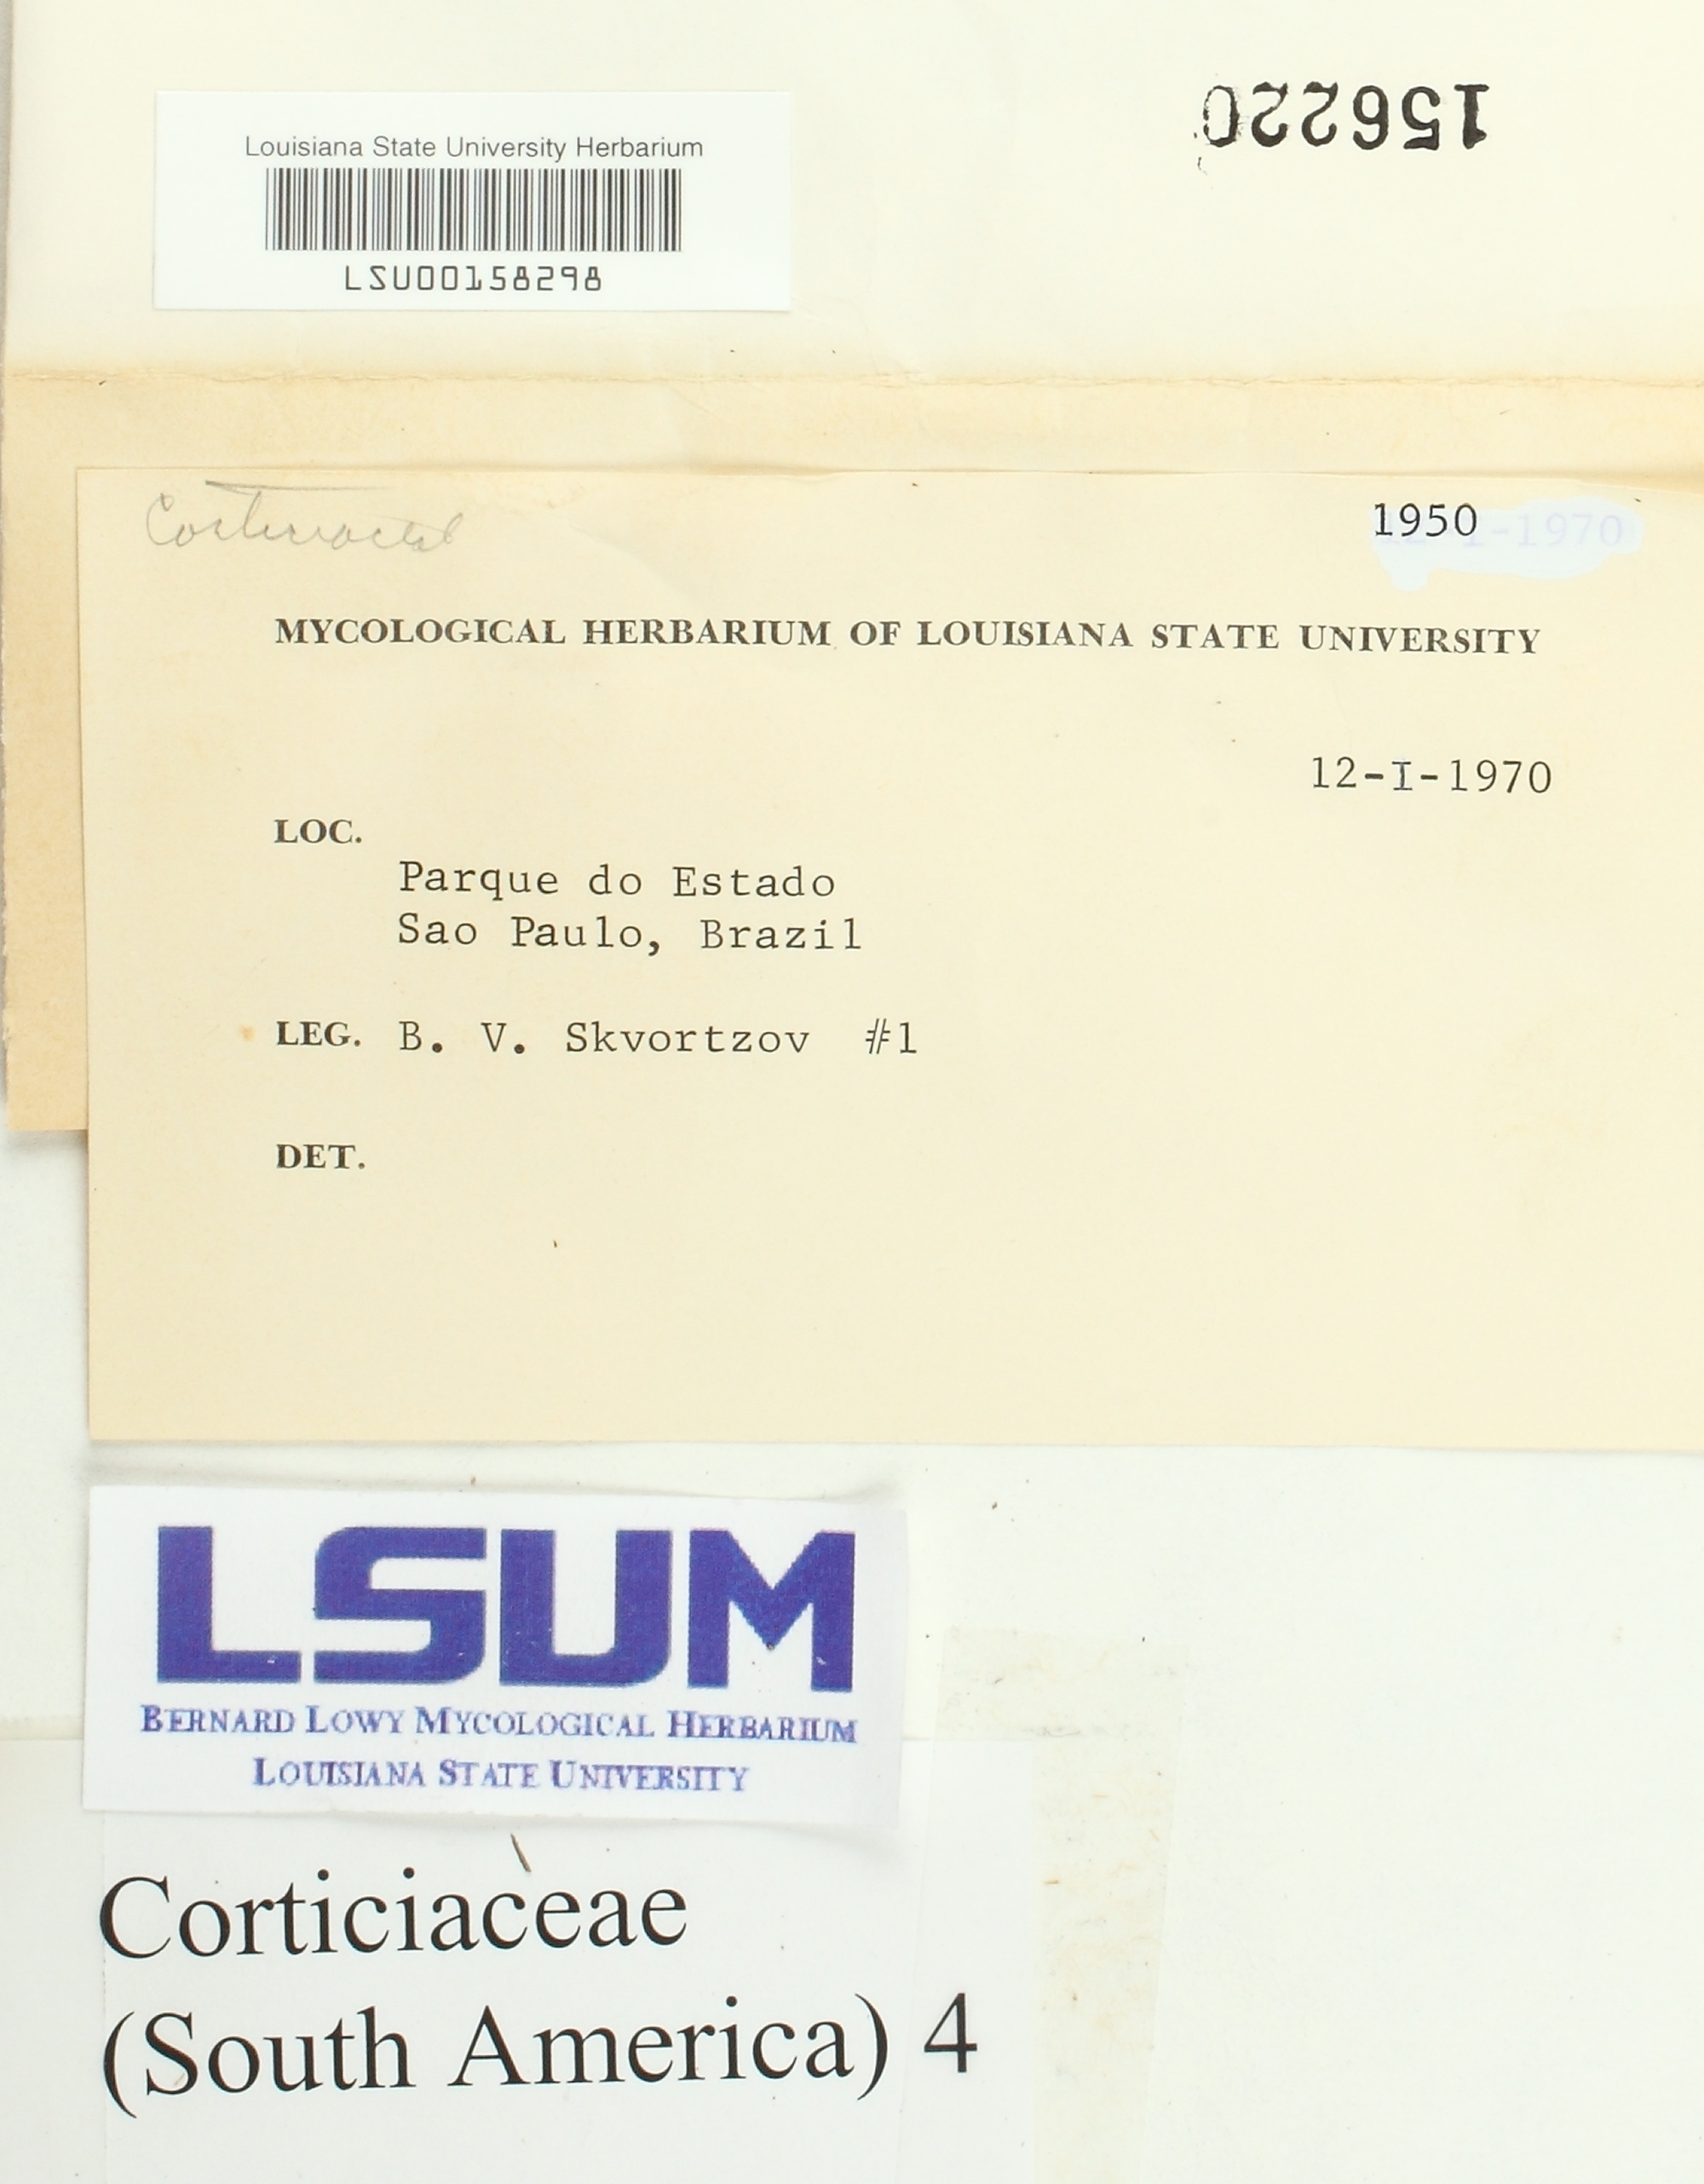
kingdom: Fungi
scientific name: Fungi
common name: Fungi
